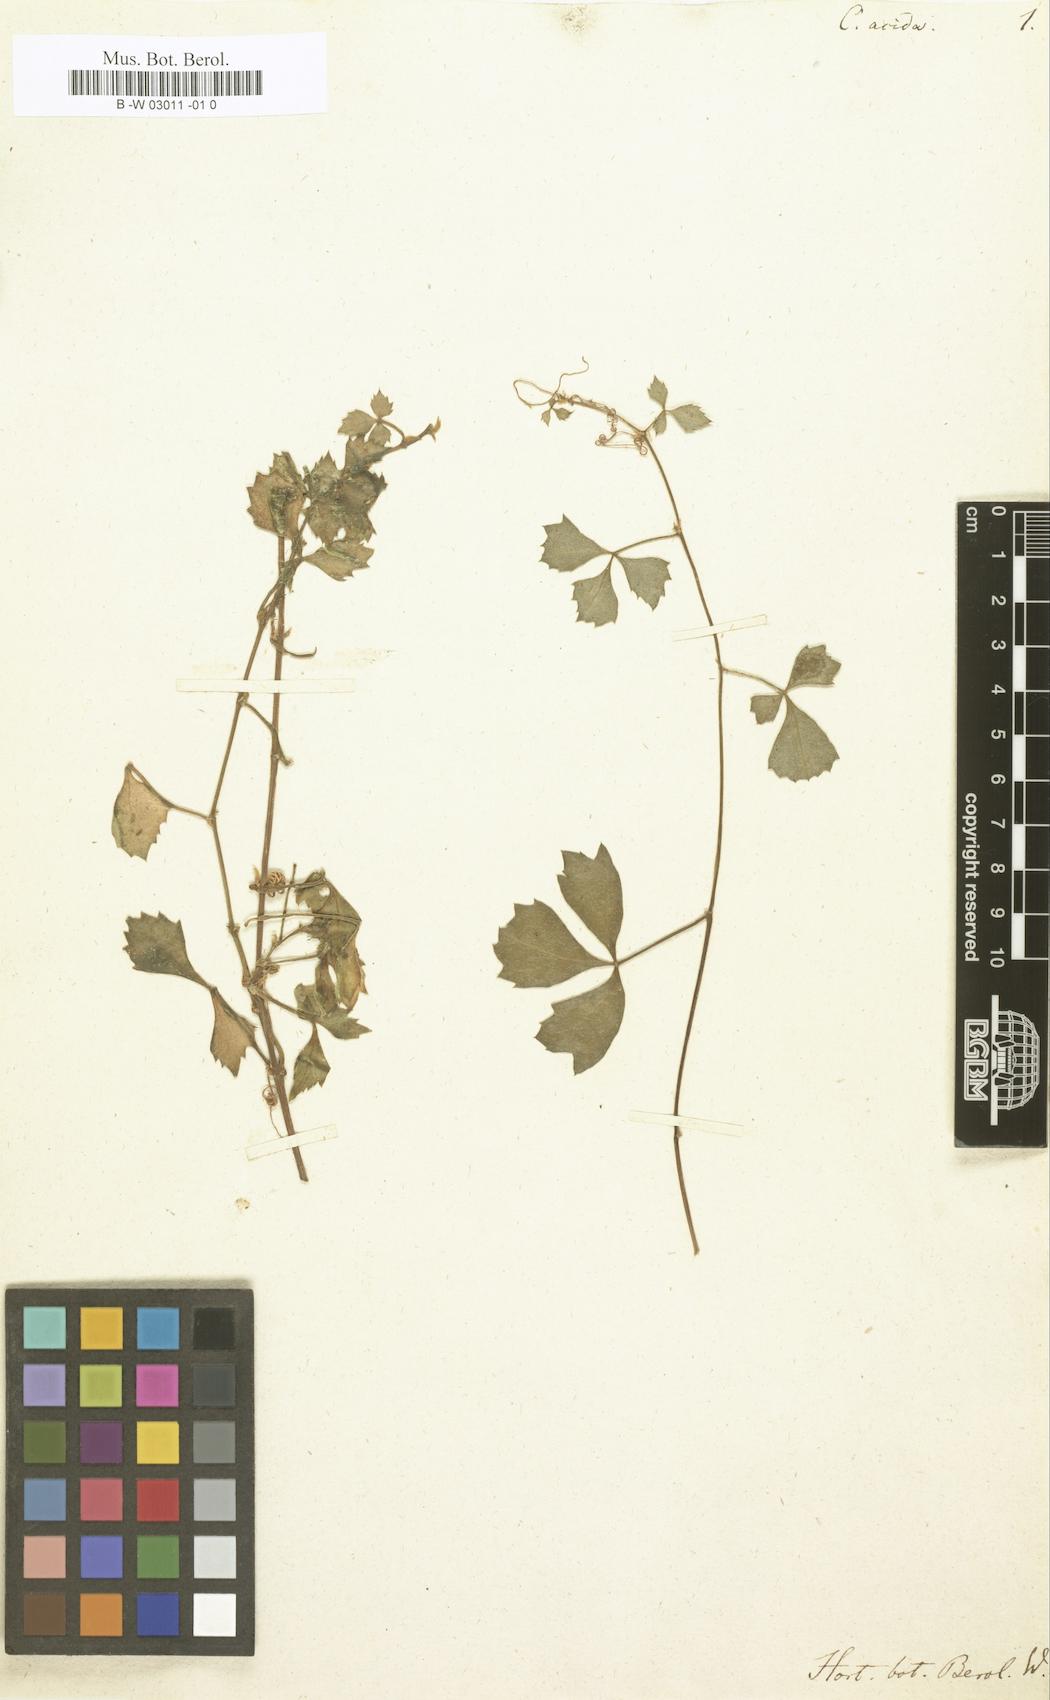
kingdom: Plantae
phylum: Tracheophyta
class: Magnoliopsida
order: Vitales
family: Vitaceae
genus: Cissus
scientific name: Cissus trifoliata
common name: Vine-sorrel
